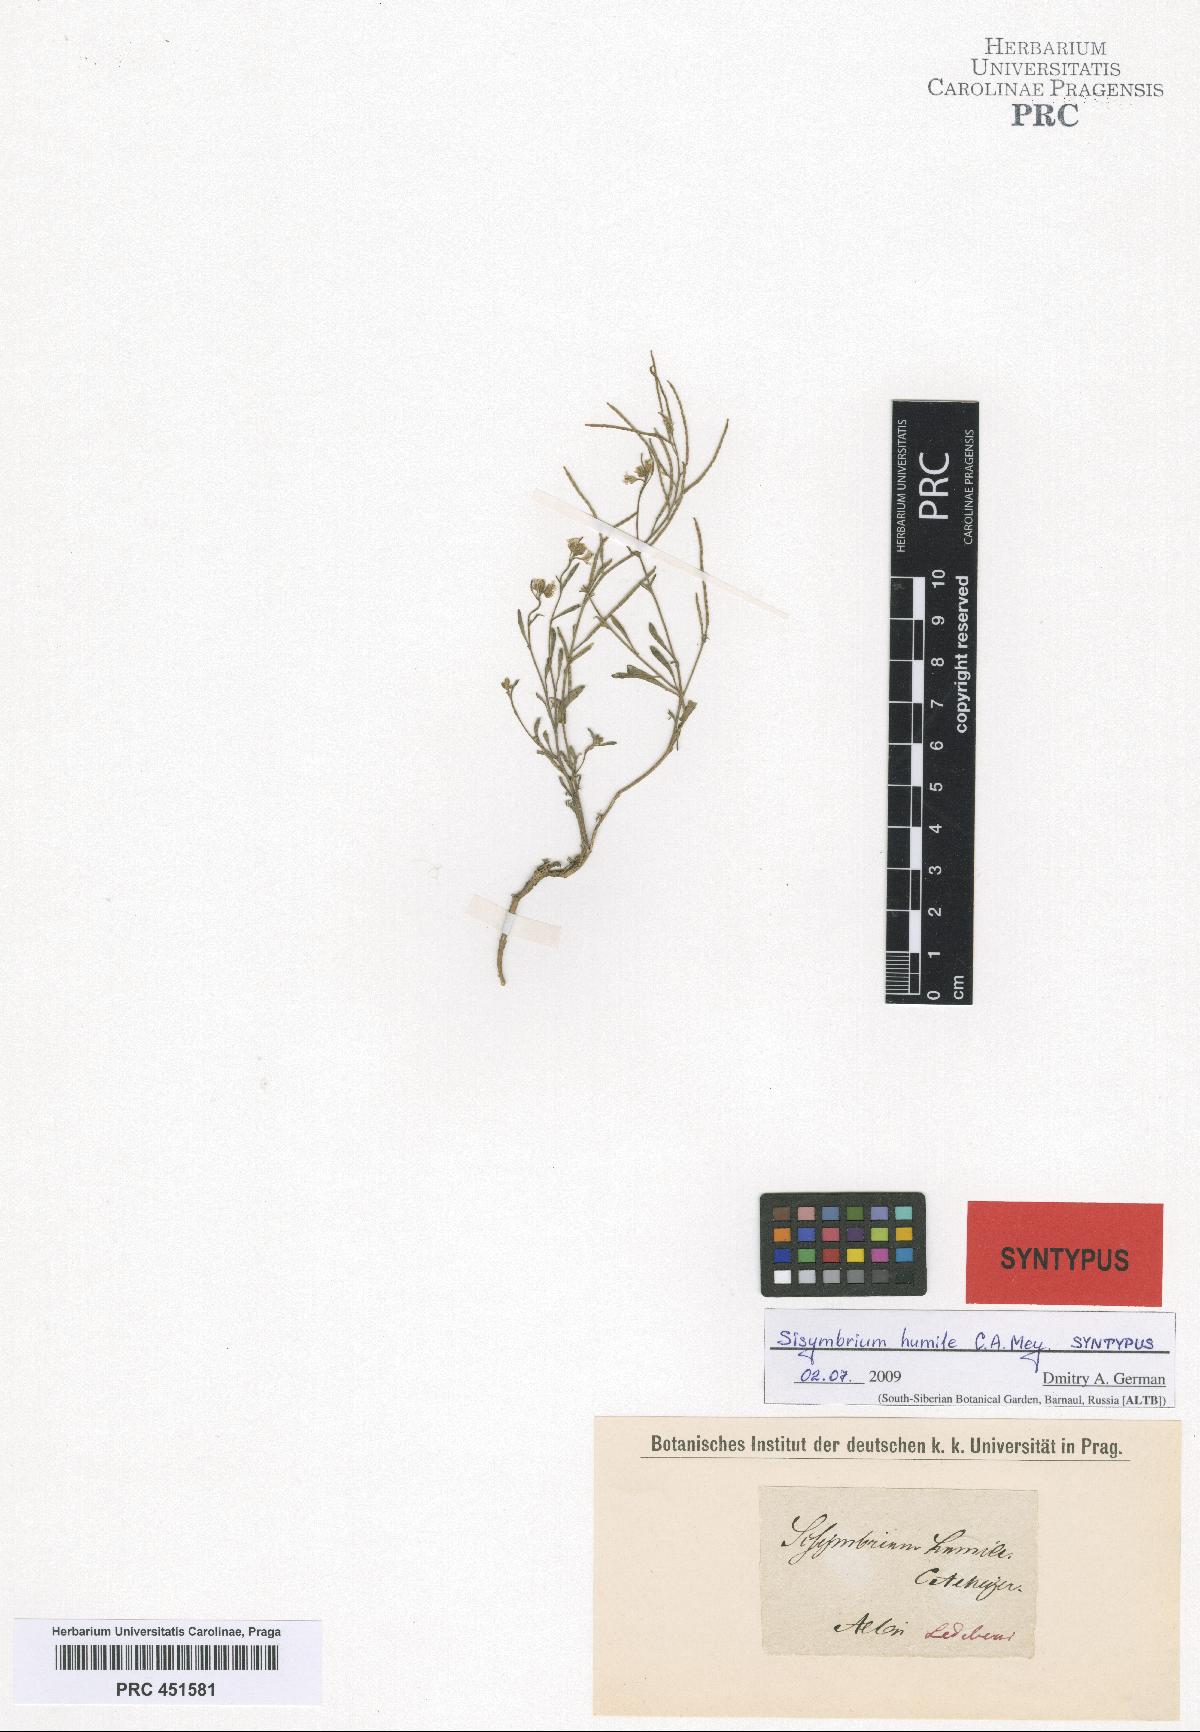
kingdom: Plantae
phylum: Tracheophyta
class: Magnoliopsida
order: Brassicales
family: Brassicaceae
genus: Braya
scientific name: Braya humilis
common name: Alpine northern rockcress
